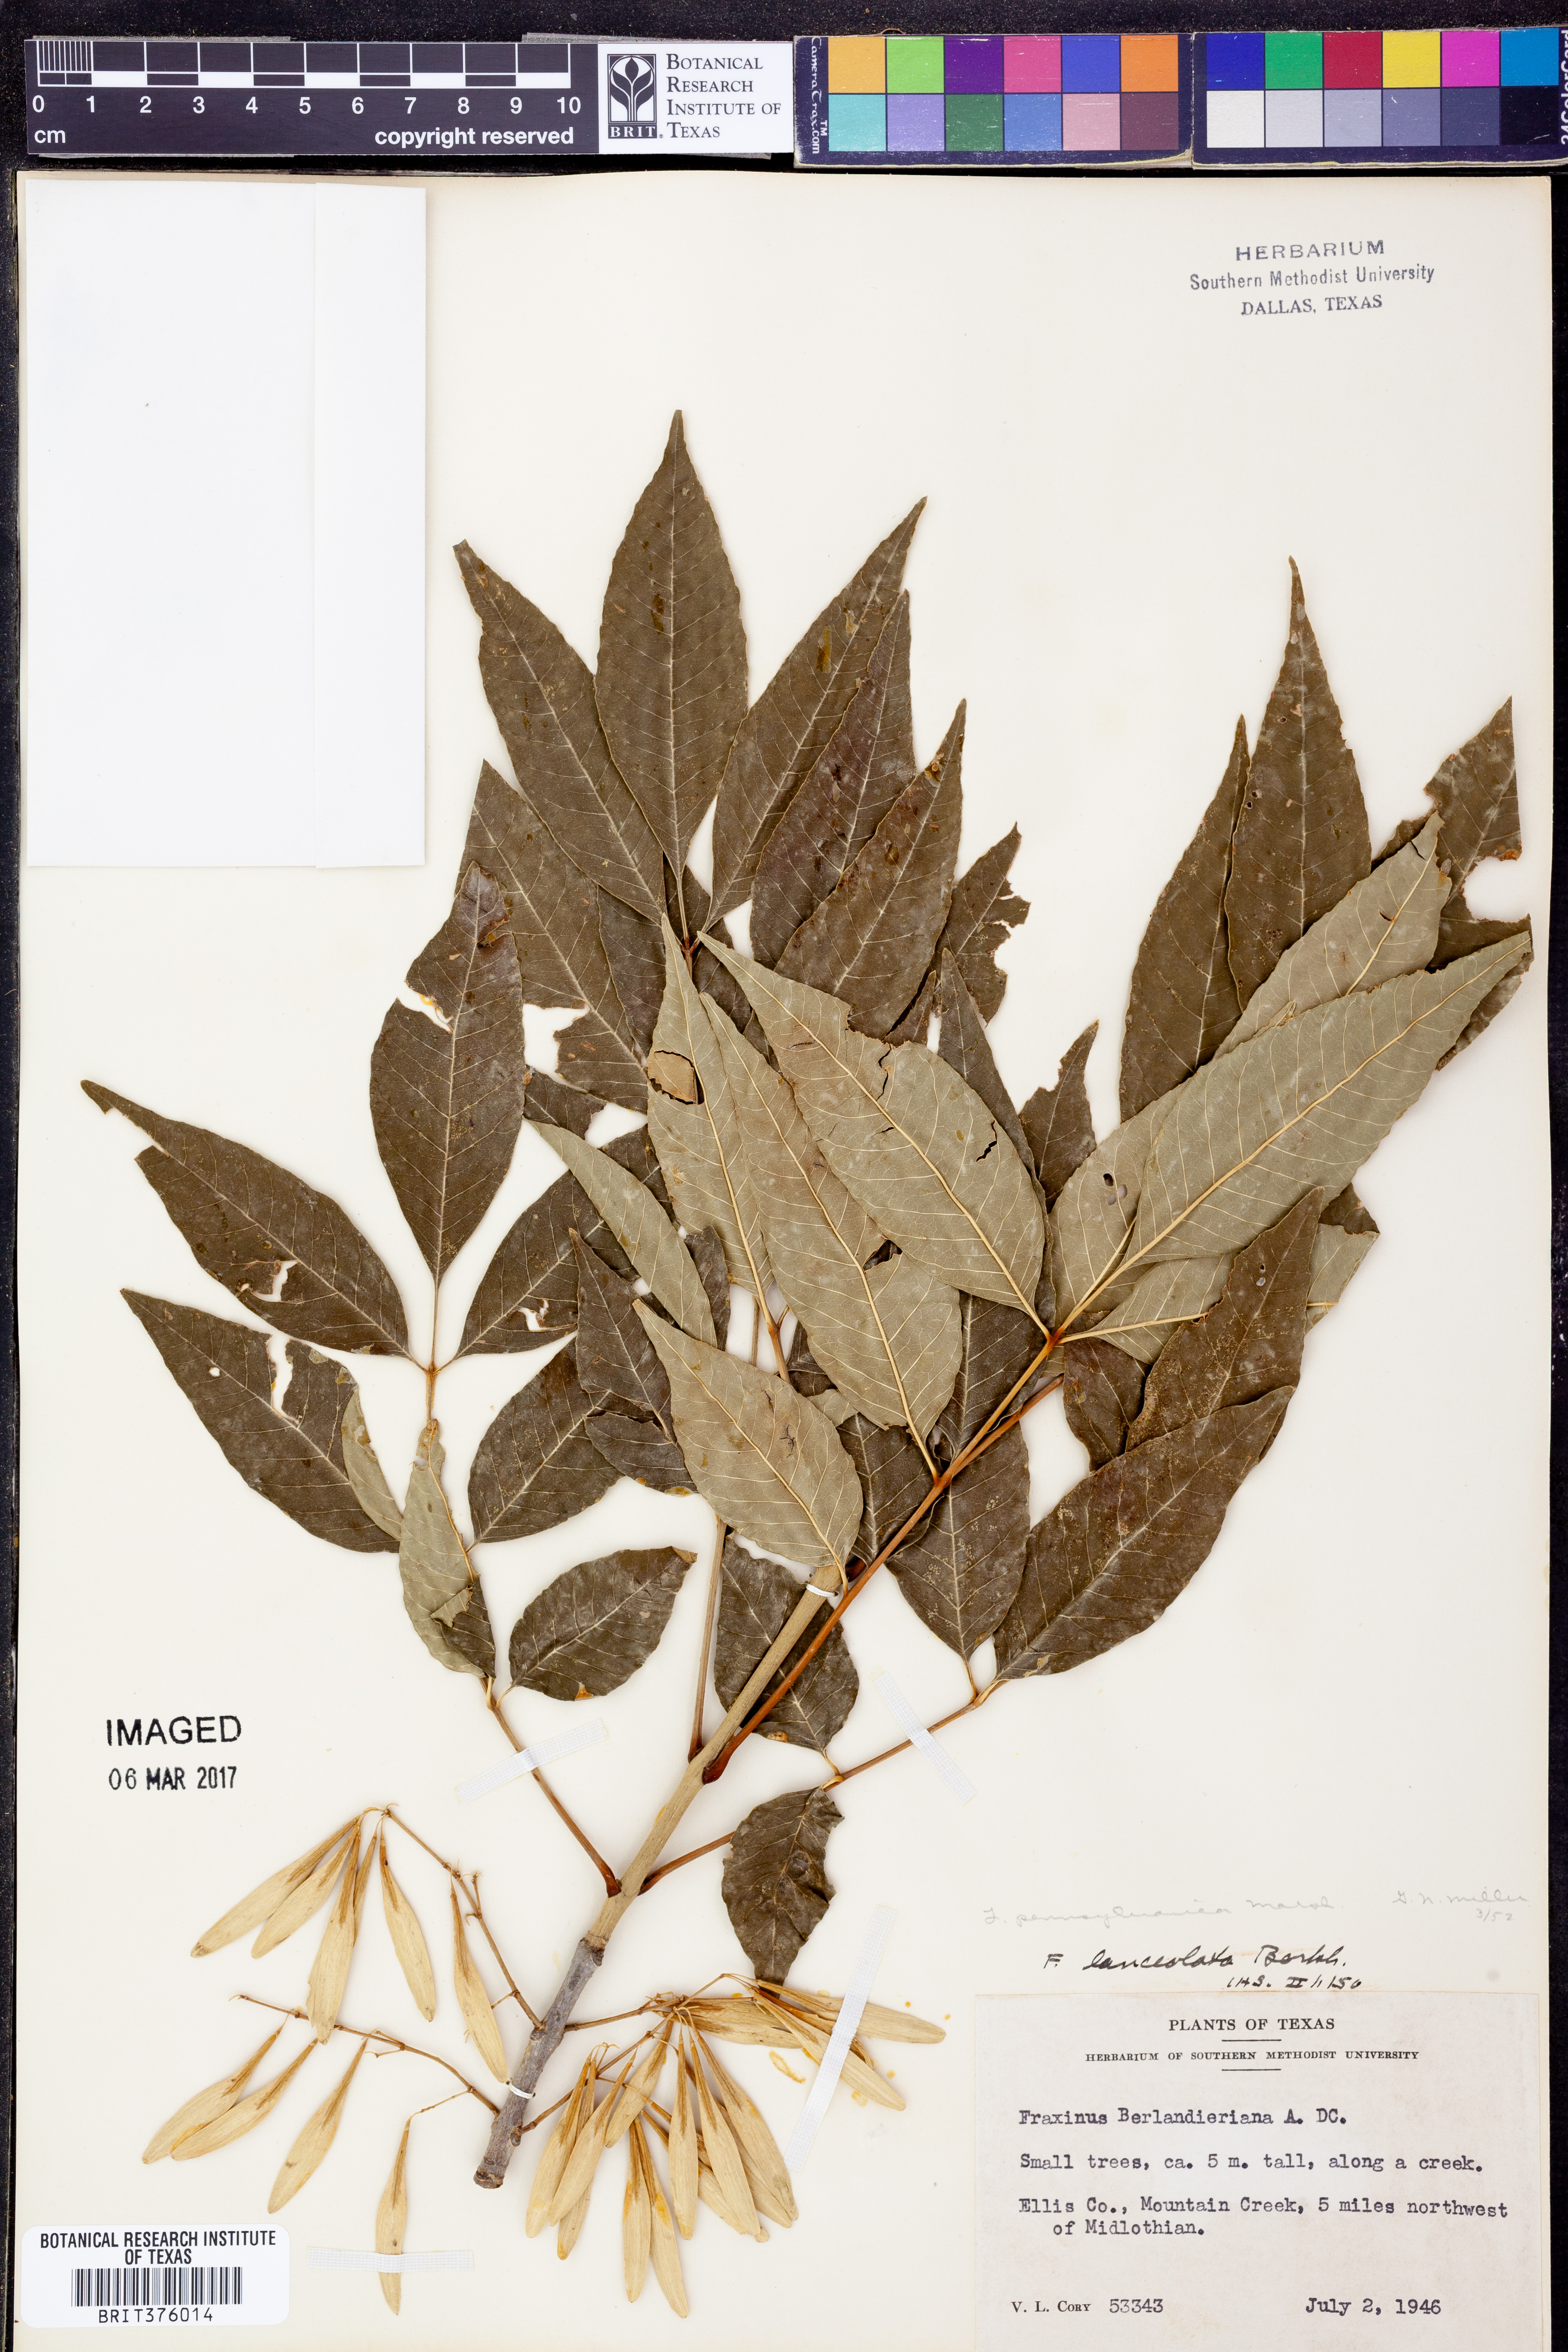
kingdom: Plantae
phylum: Tracheophyta
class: Magnoliopsida
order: Lamiales
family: Oleaceae
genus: Fraxinus
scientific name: Fraxinus pennsylvanica
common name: Green ash
